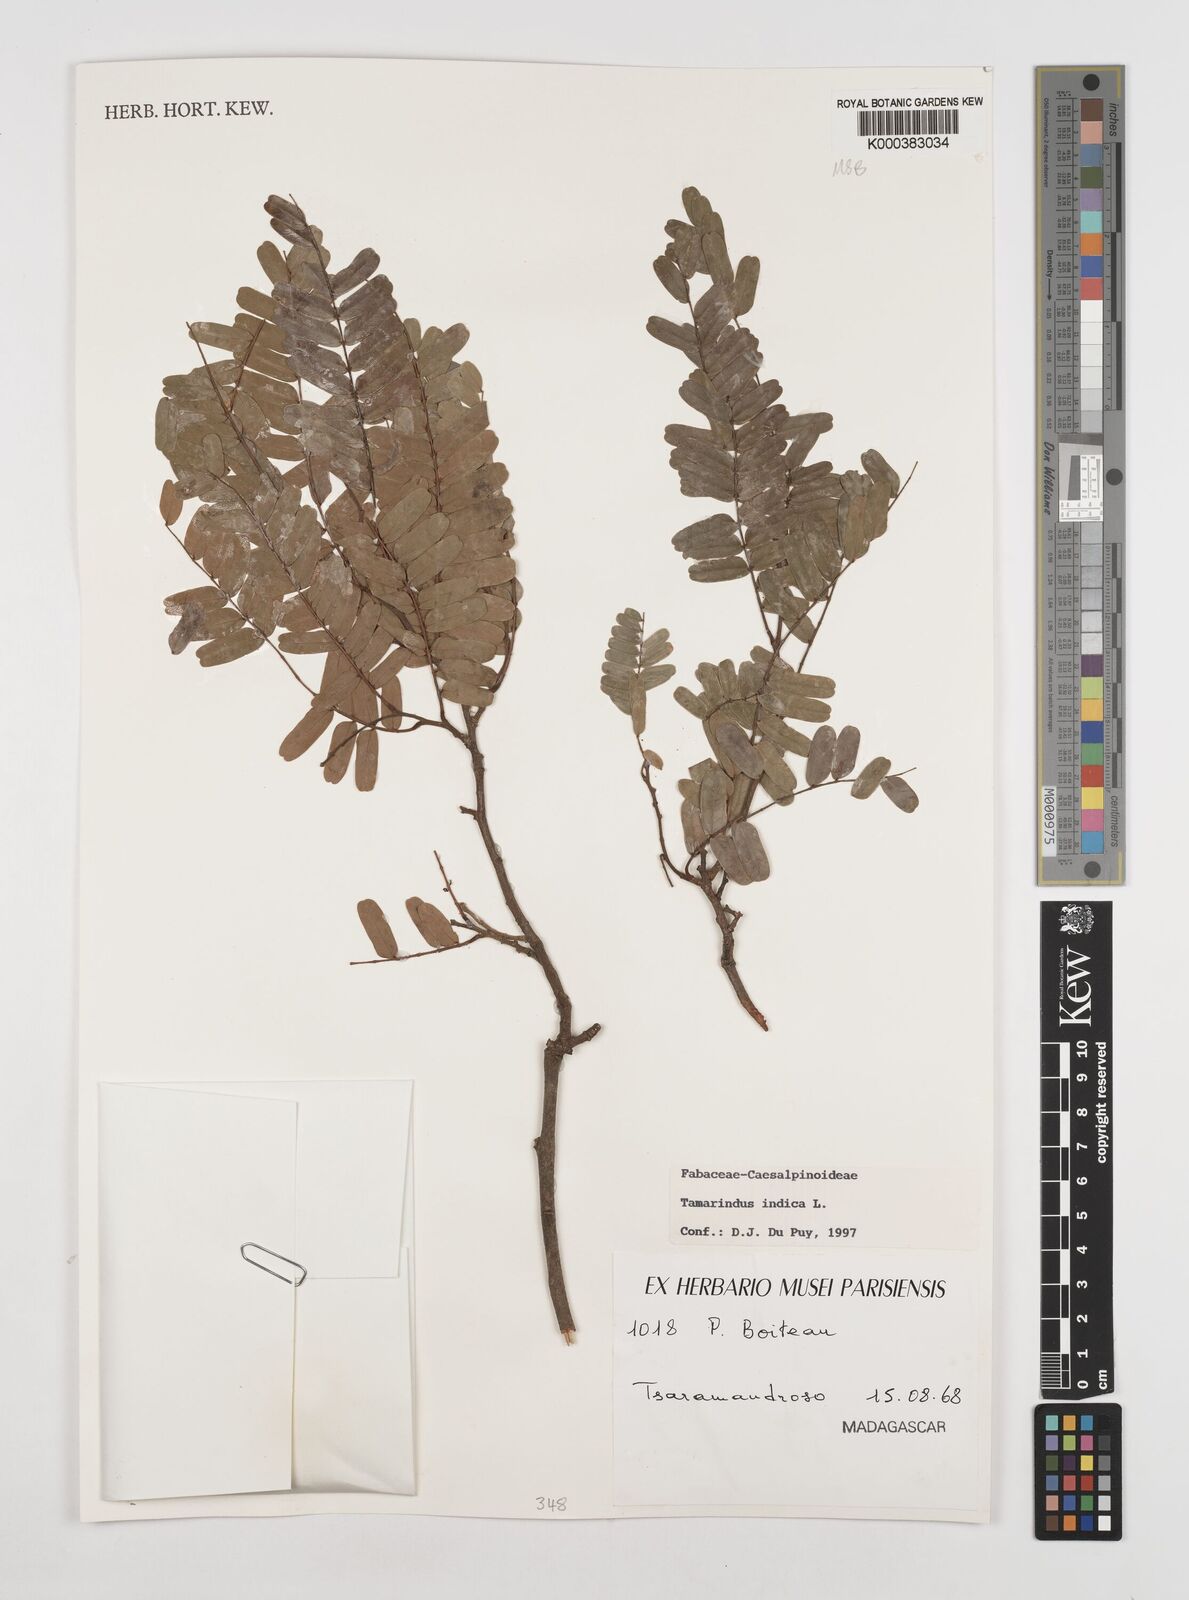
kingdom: Plantae
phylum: Tracheophyta
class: Magnoliopsida
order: Fabales
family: Fabaceae
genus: Tamarindus
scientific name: Tamarindus indica
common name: Tamarind
